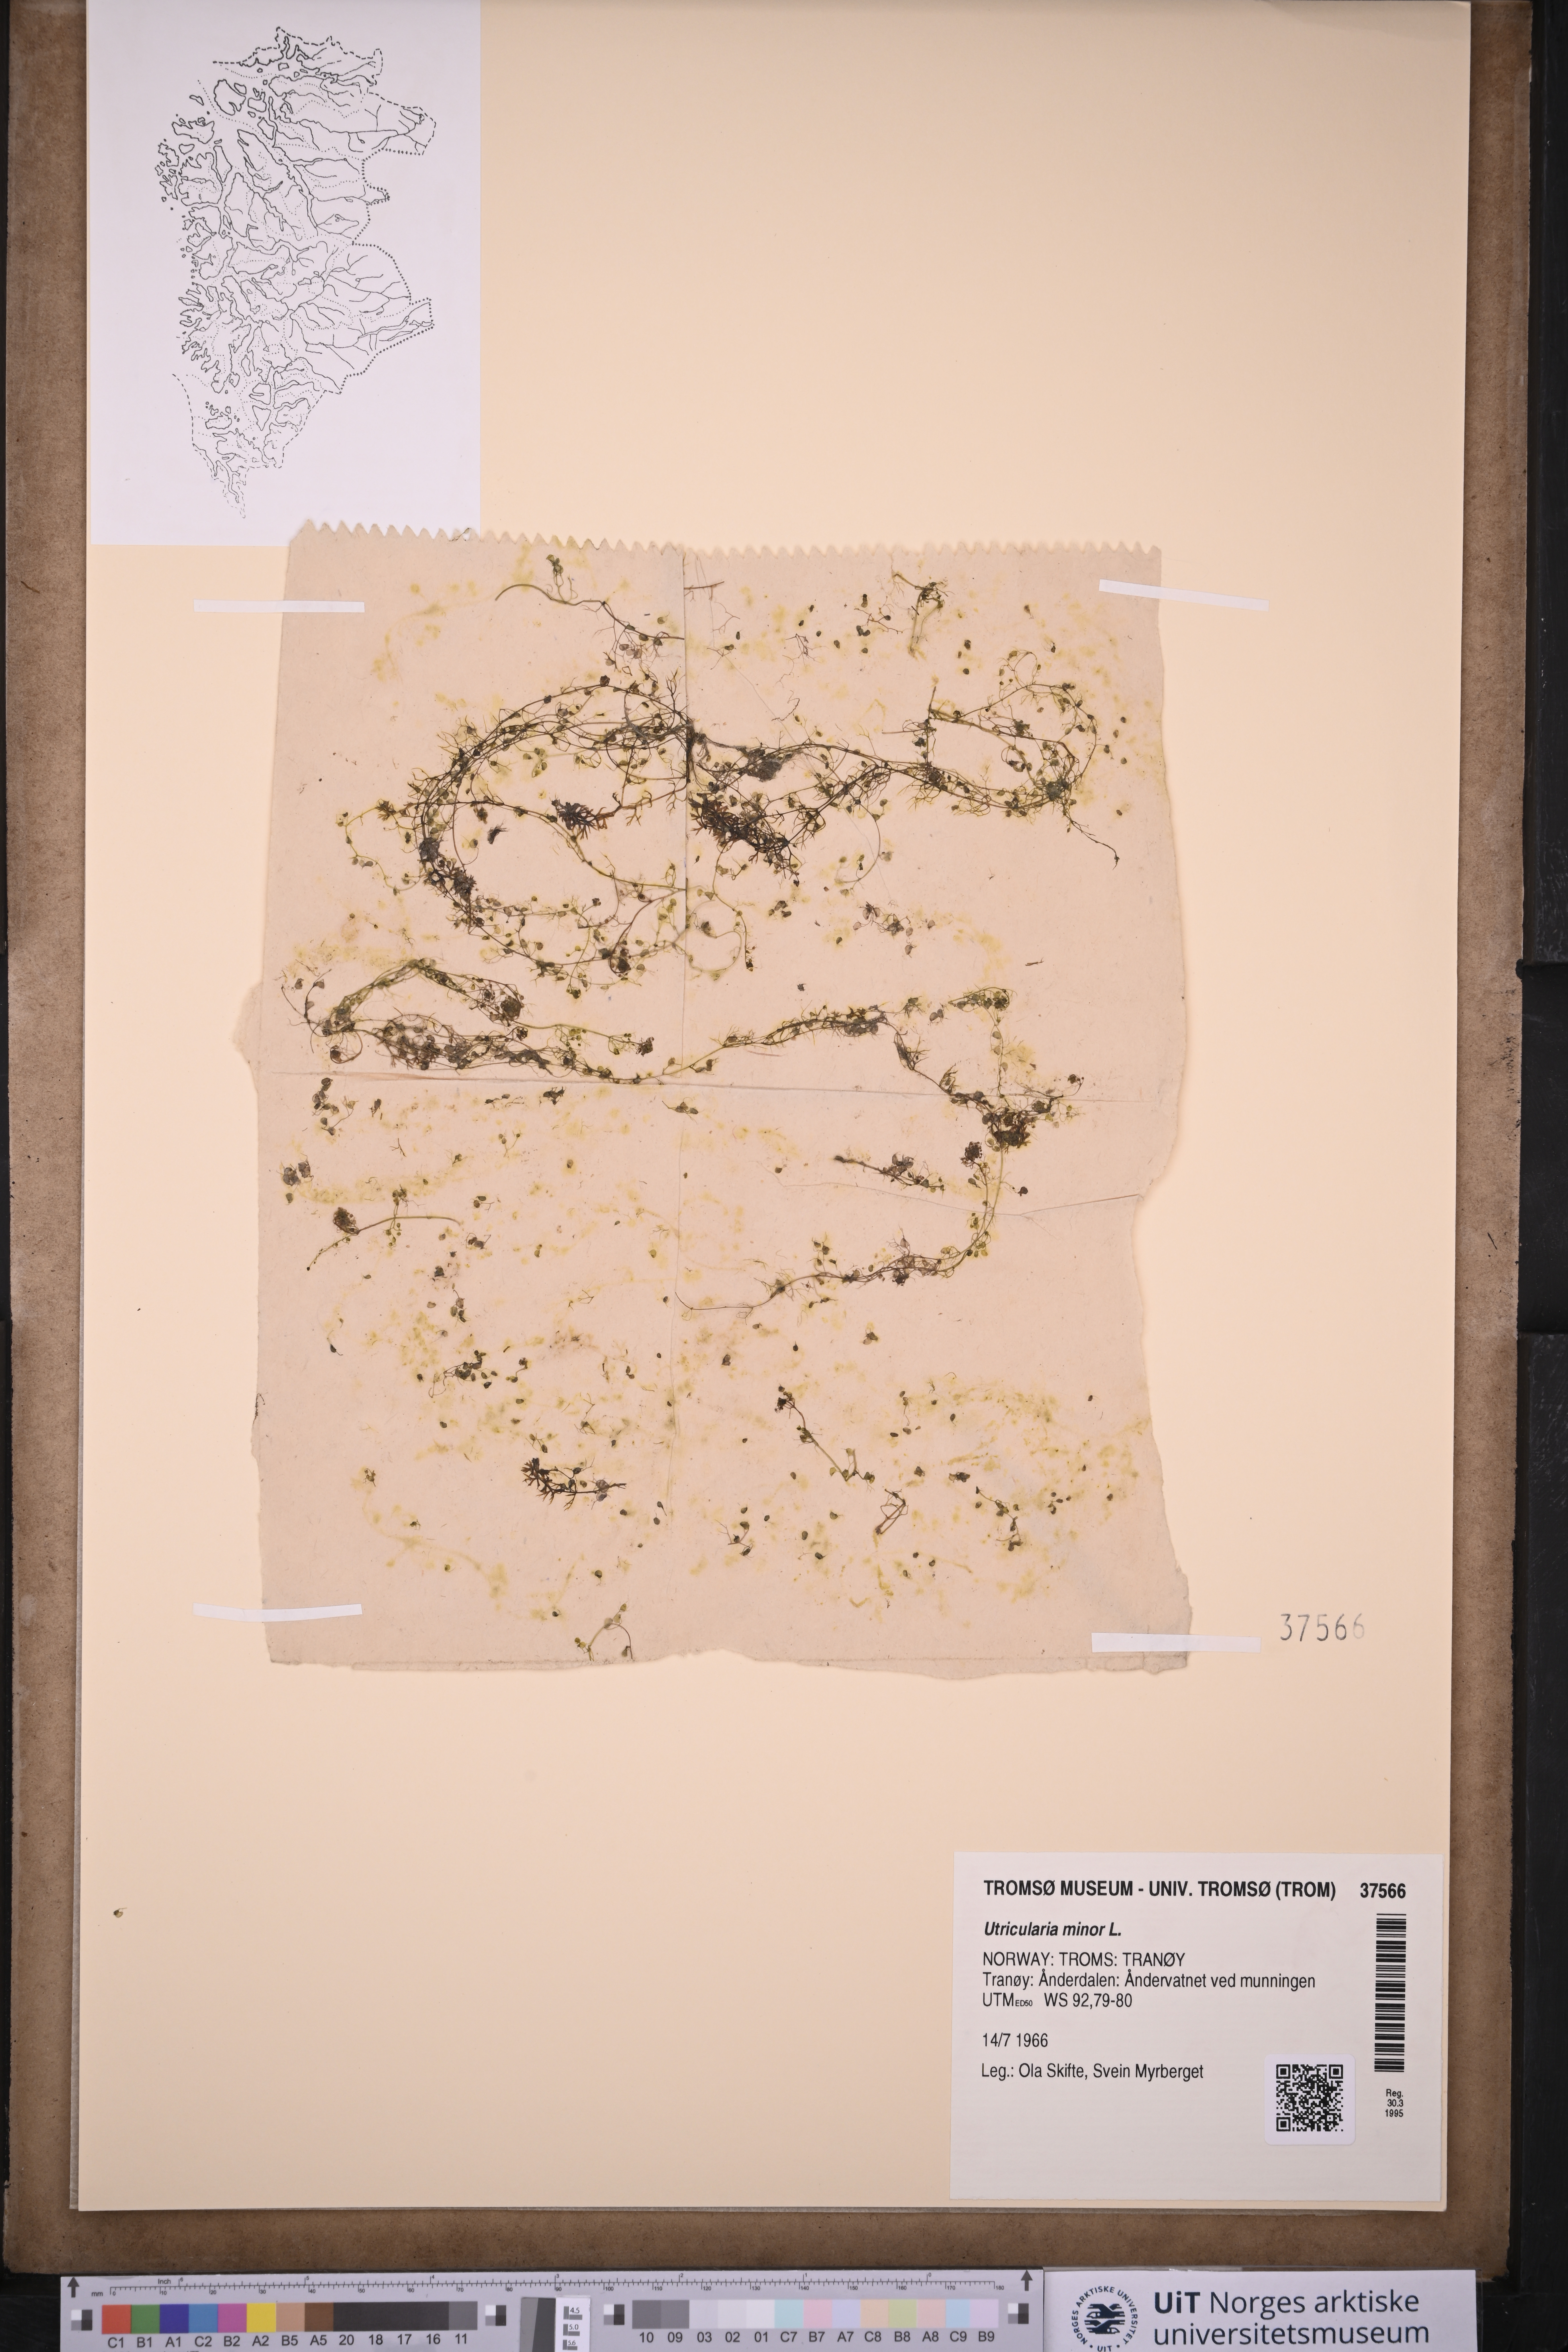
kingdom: Plantae
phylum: Tracheophyta
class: Magnoliopsida
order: Lamiales
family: Lentibulariaceae
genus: Utricularia
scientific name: Utricularia minor
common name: Lesser bladderwort
